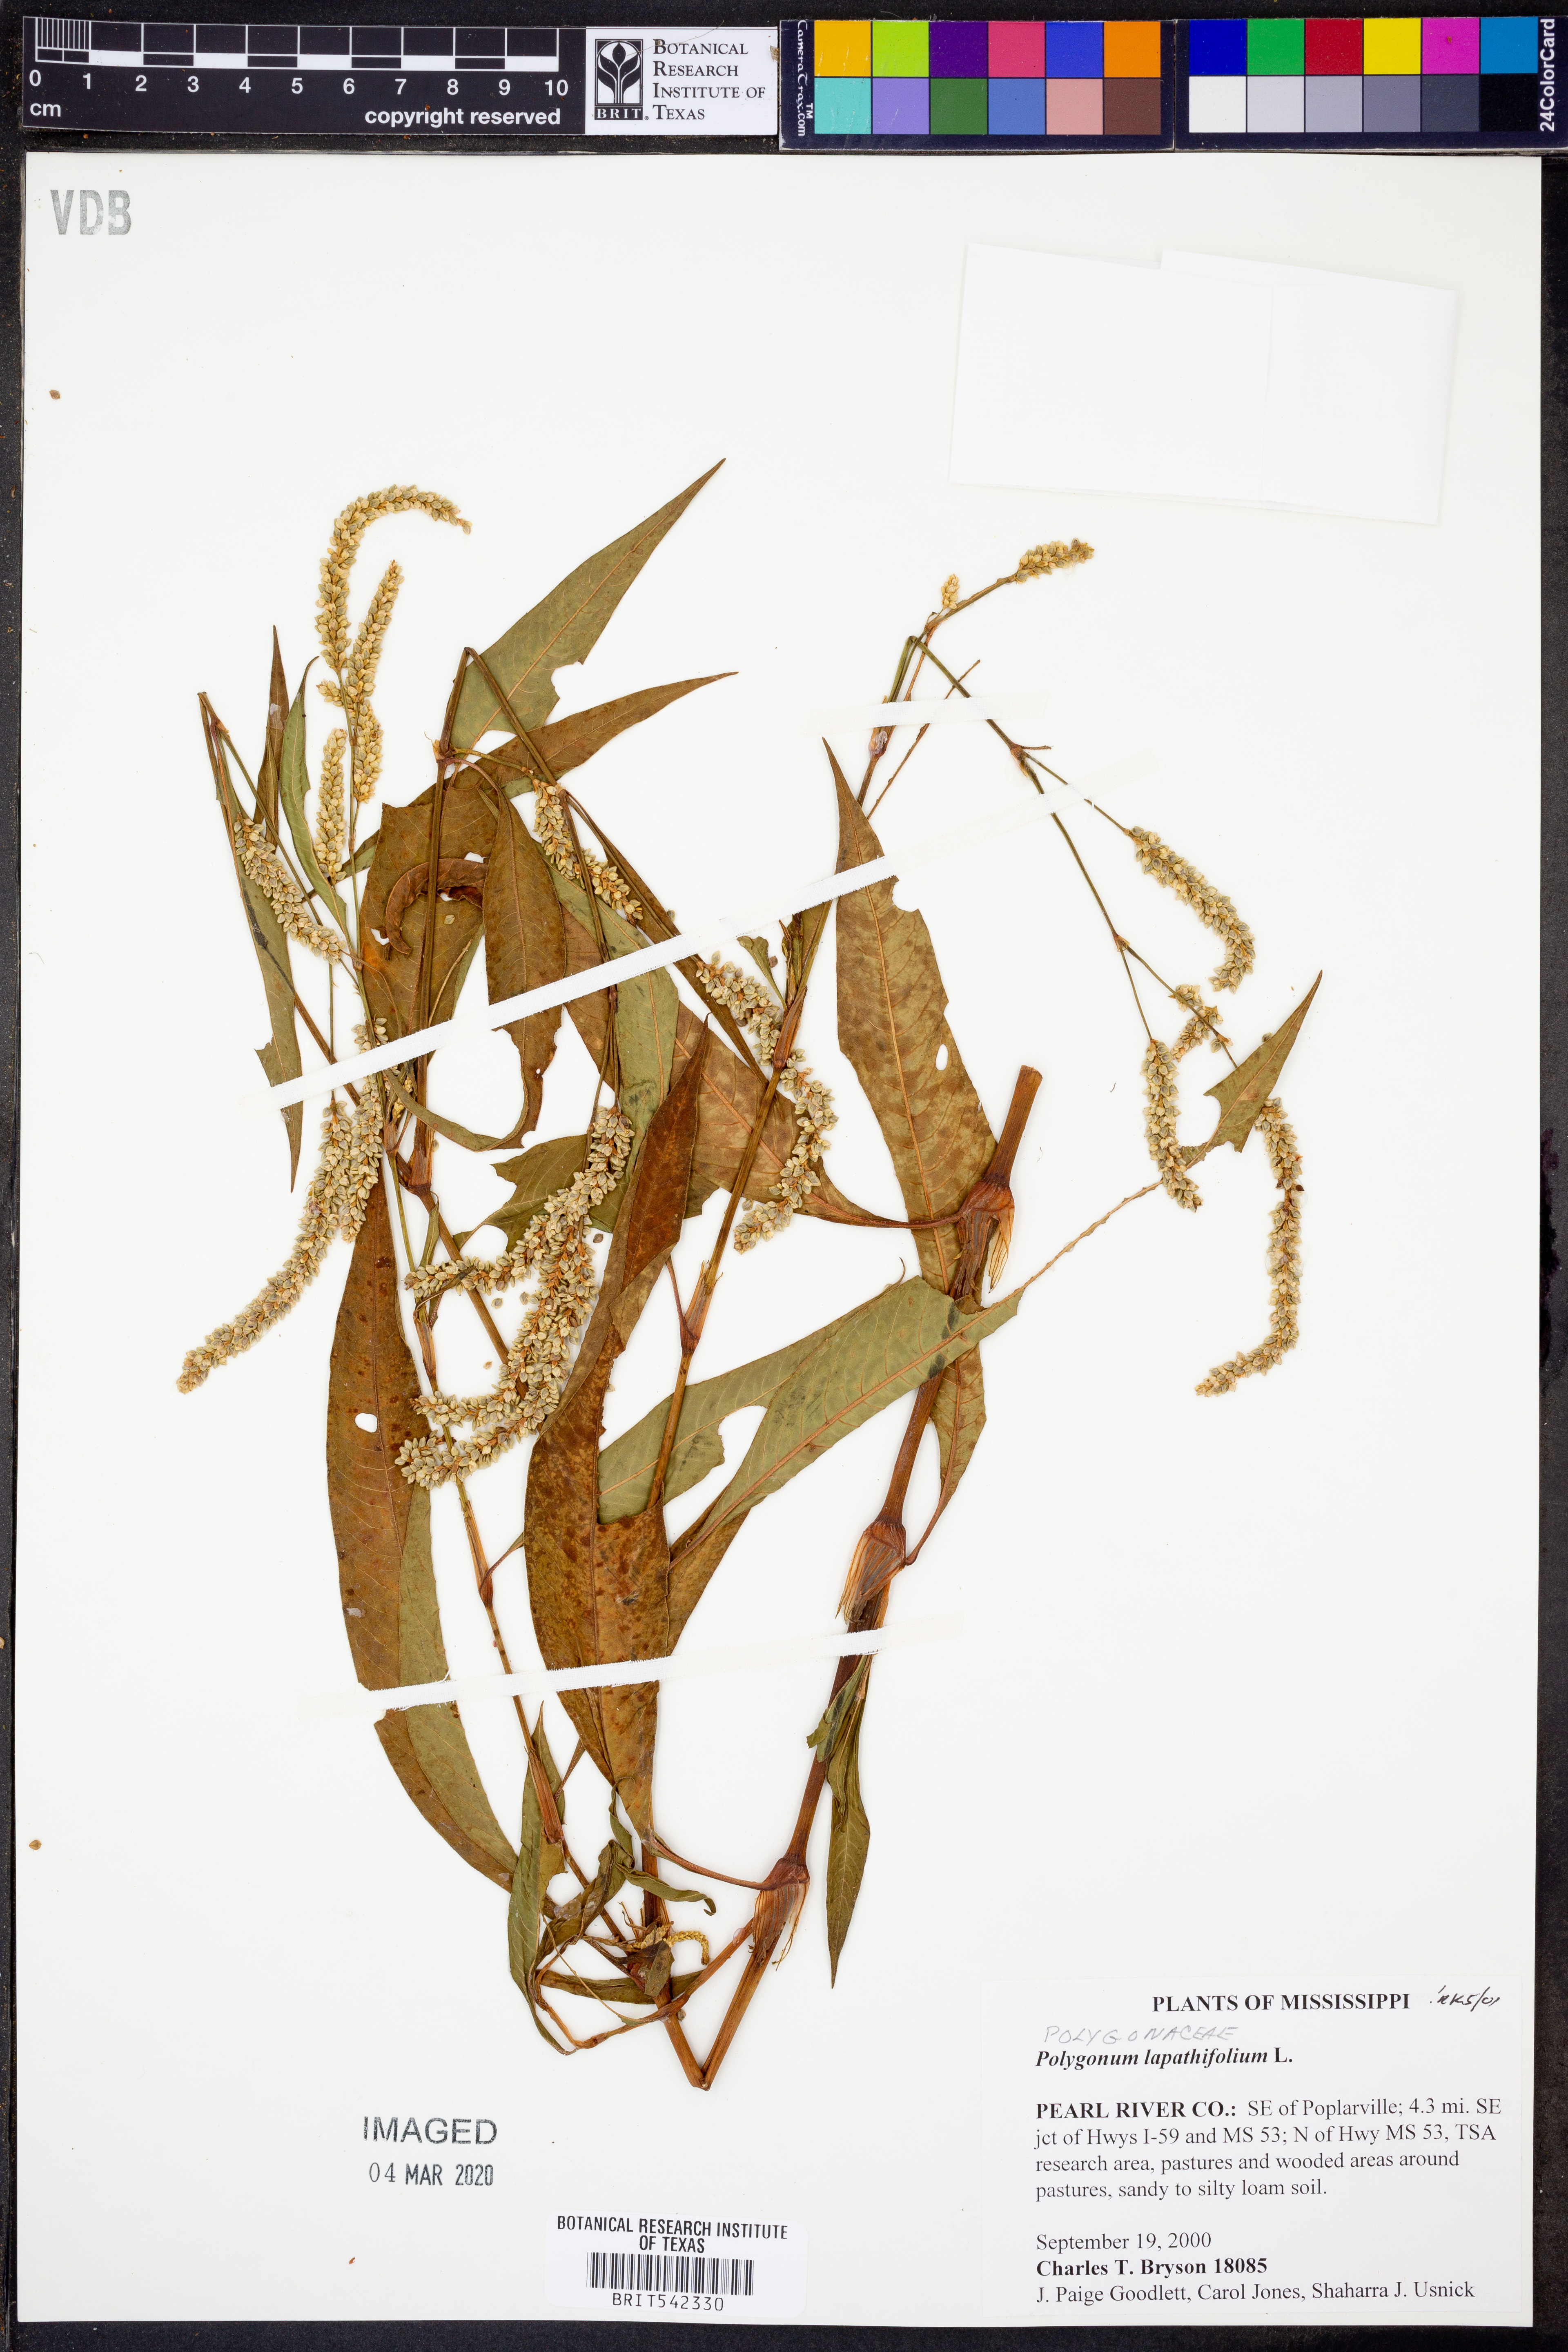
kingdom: Plantae
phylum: Tracheophyta
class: Magnoliopsida
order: Caryophyllales
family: Polygonaceae
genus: Persicaria
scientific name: Persicaria lapathifolia
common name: Curlytop knotweed
